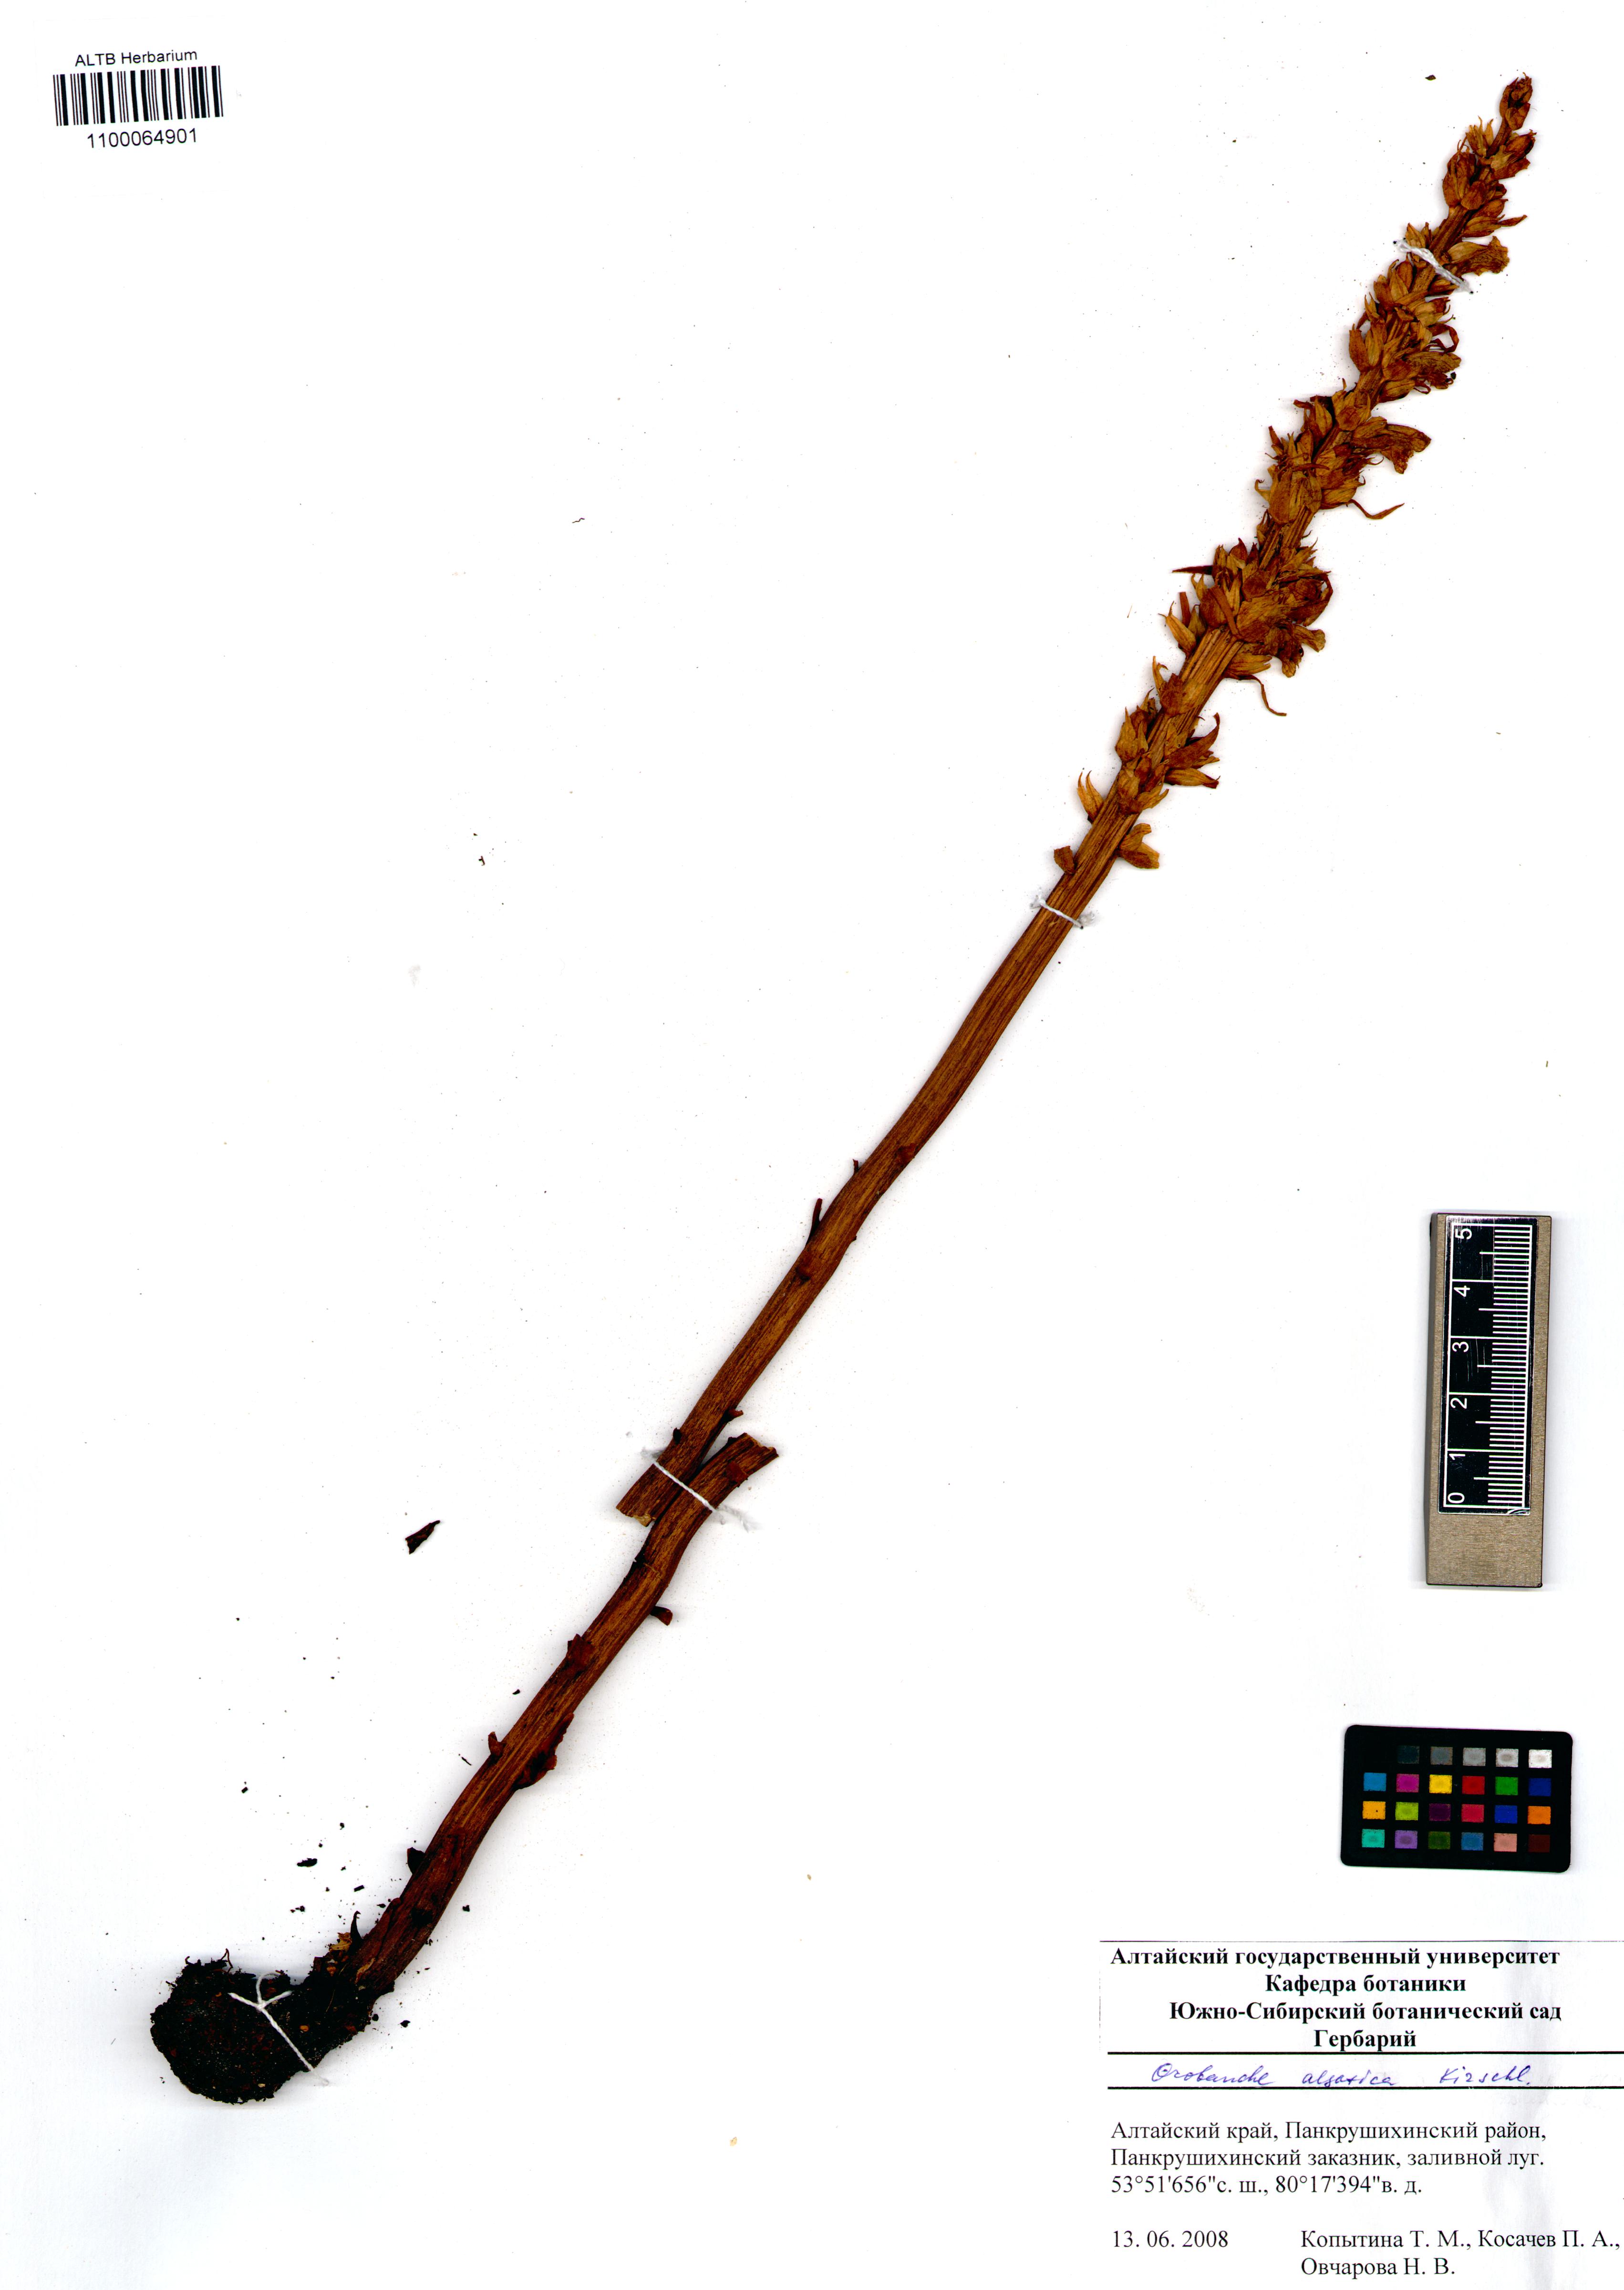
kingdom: Plantae
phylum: Tracheophyta
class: Magnoliopsida
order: Lamiales
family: Orobanchaceae
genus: Orobanche
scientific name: Orobanche alsatica
